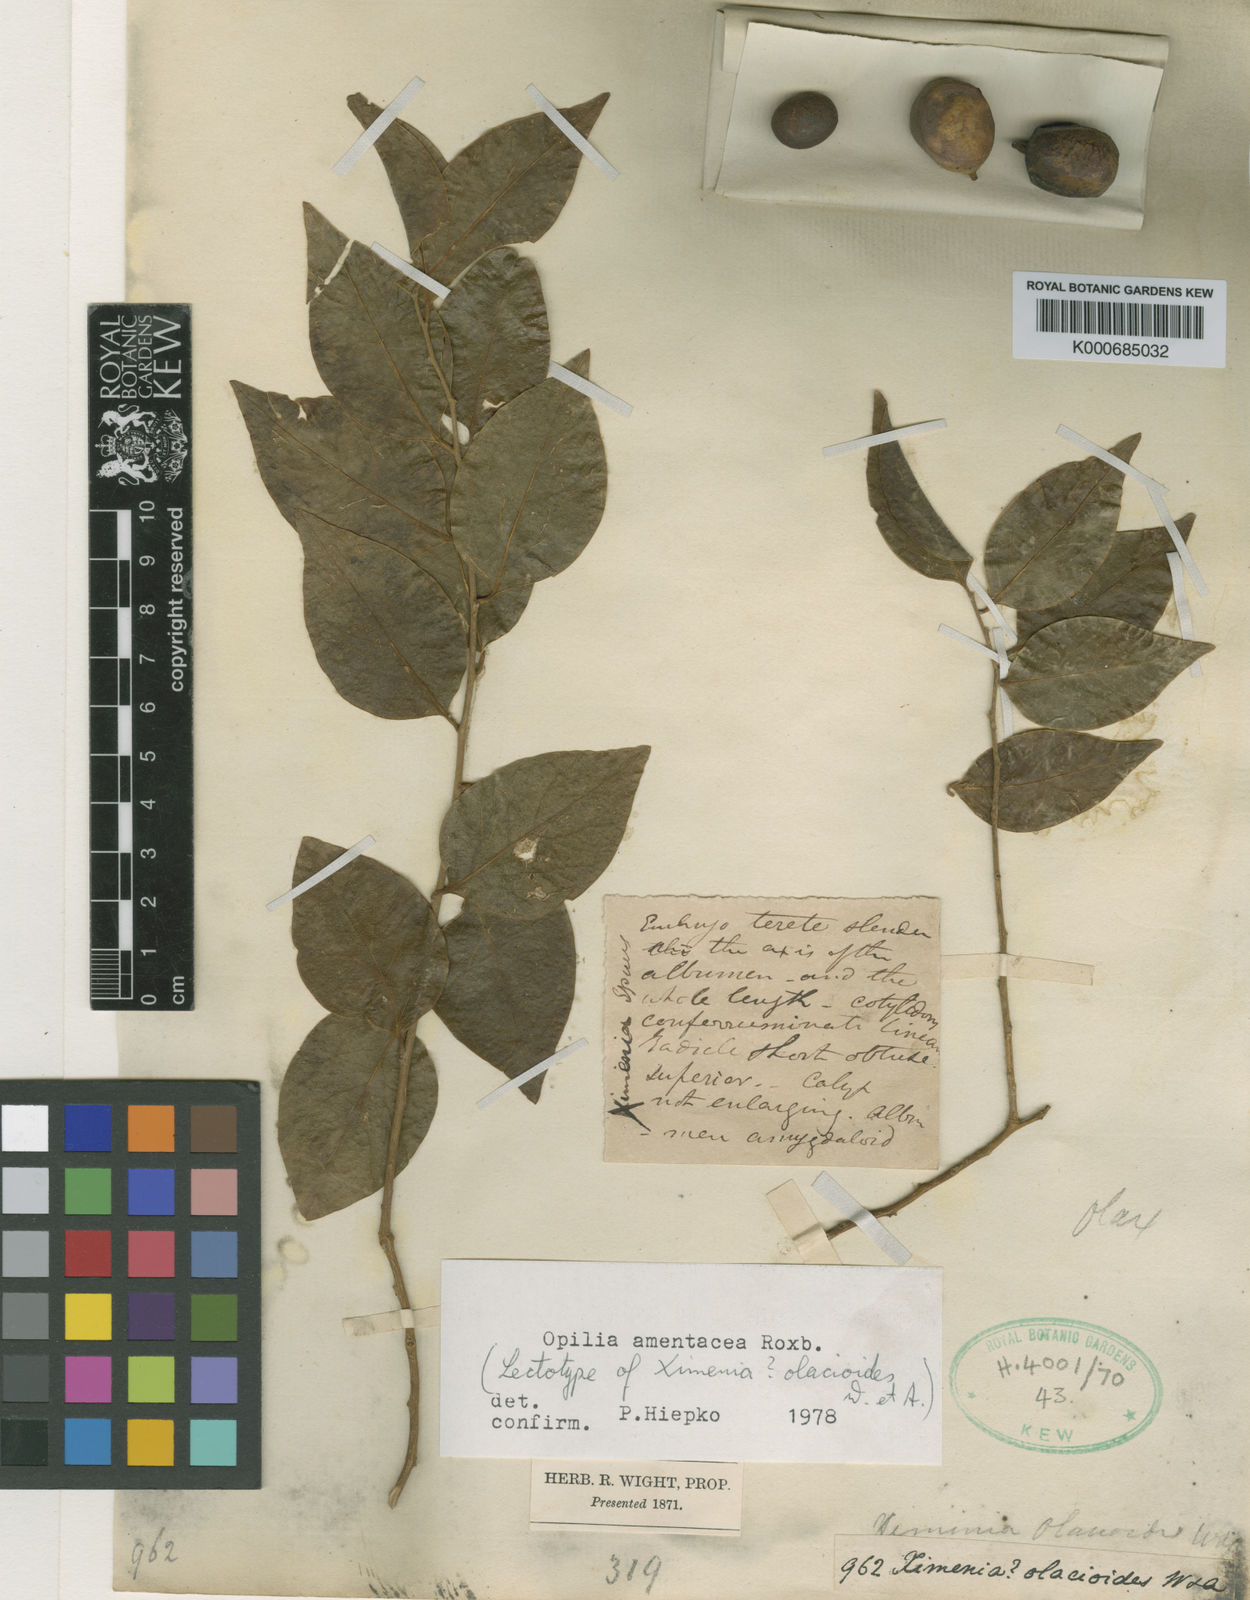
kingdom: Plantae
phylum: Tracheophyta
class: Magnoliopsida
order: Santalales
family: Opiliaceae
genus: Opilia
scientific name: Opilia amentacea
